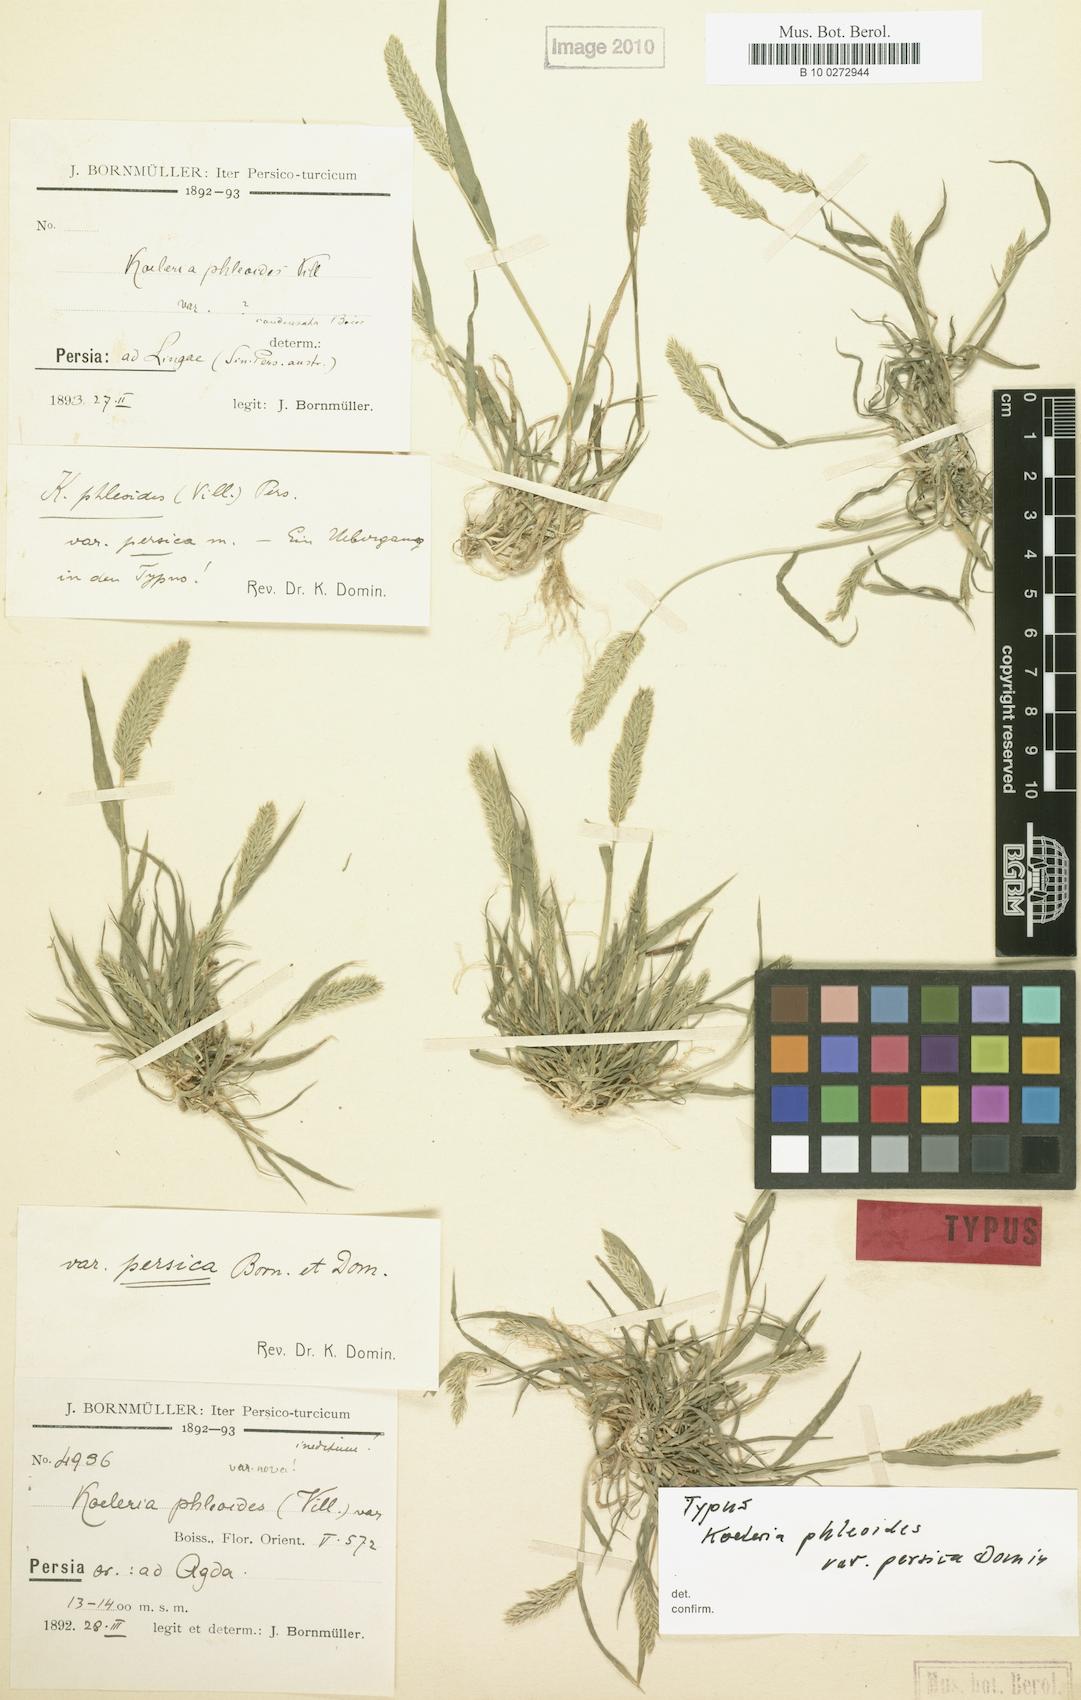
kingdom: Plantae
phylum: Tracheophyta
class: Liliopsida
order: Poales
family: Poaceae
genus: Rostraria
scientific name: Rostraria cristata
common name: Mediterranean hair-grass
